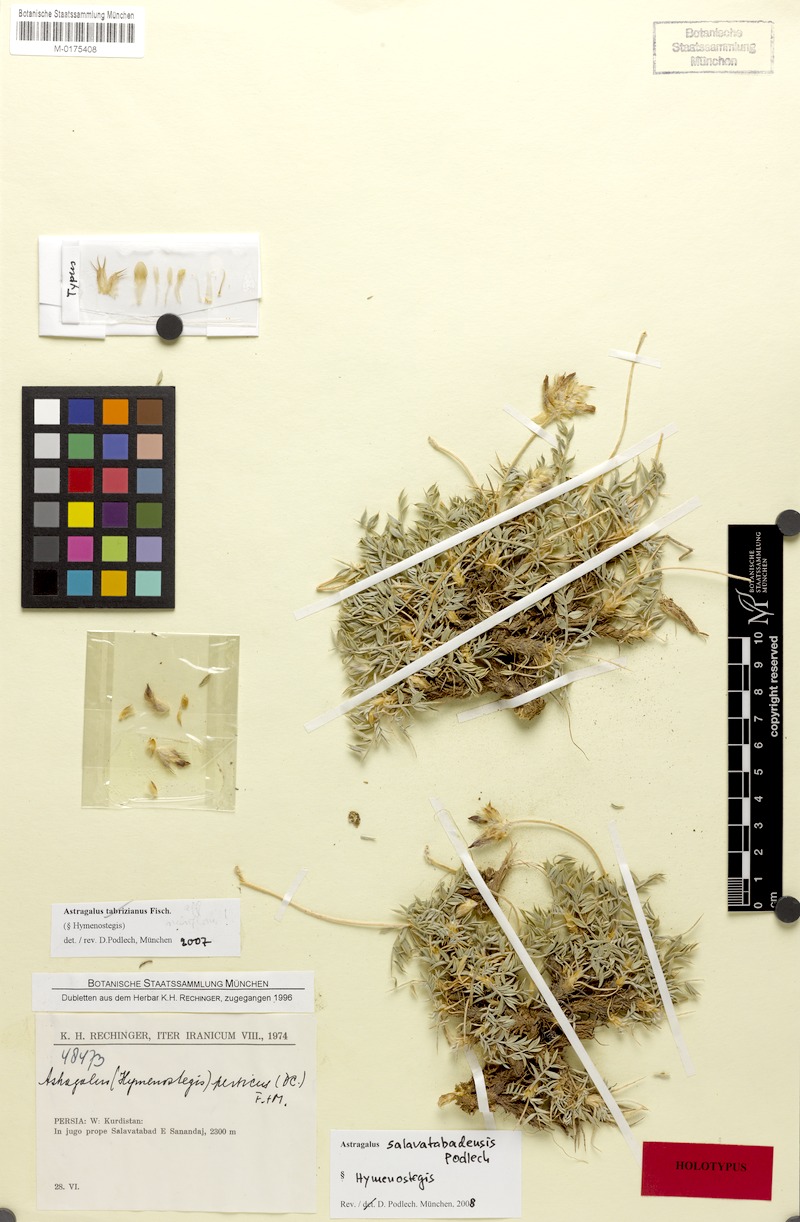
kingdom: Plantae
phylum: Tracheophyta
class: Magnoliopsida
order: Fabales
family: Fabaceae
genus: Astragalus
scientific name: Astragalus salavatabadensis
